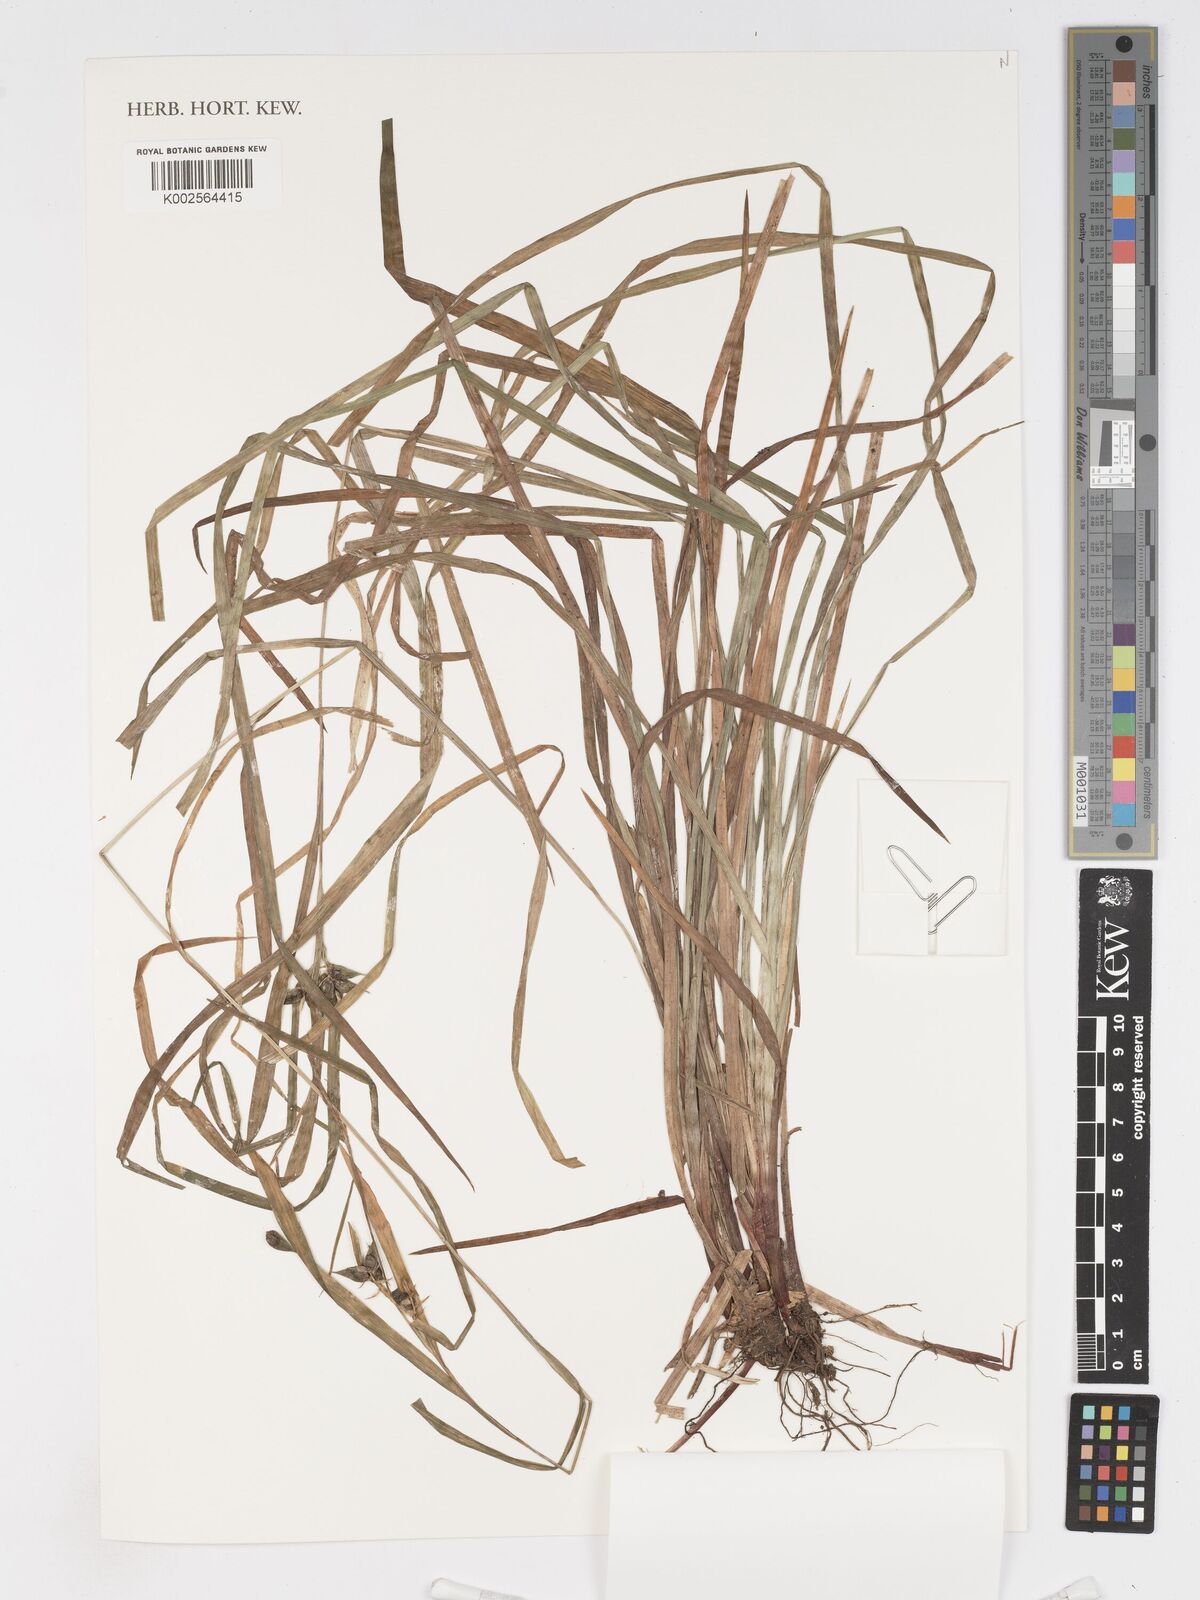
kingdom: Plantae
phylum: Tracheophyta
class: Liliopsida
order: Poales
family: Cyperaceae
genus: Carex
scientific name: Carex intumescens
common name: Greater bladder sedge
